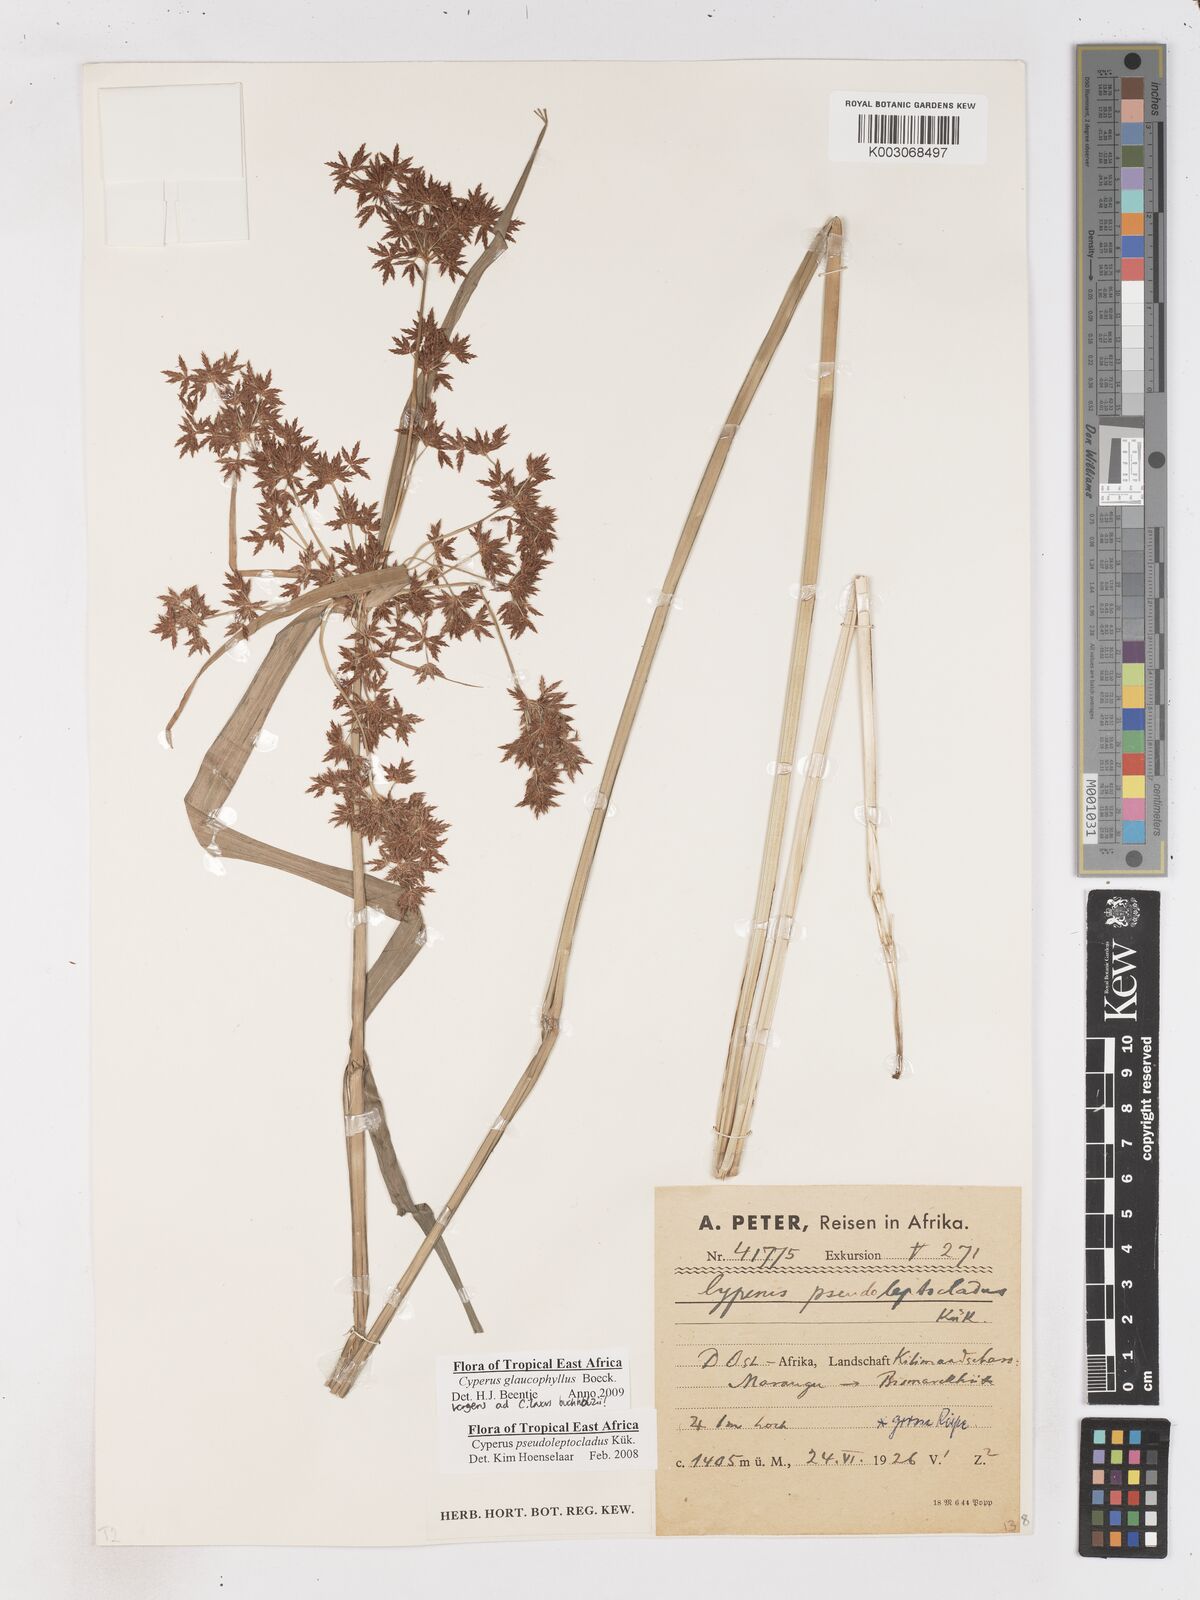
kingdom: Plantae
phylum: Tracheophyta
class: Liliopsida
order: Poales
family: Cyperaceae
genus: Cyperus
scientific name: Cyperus glaucophyllus
